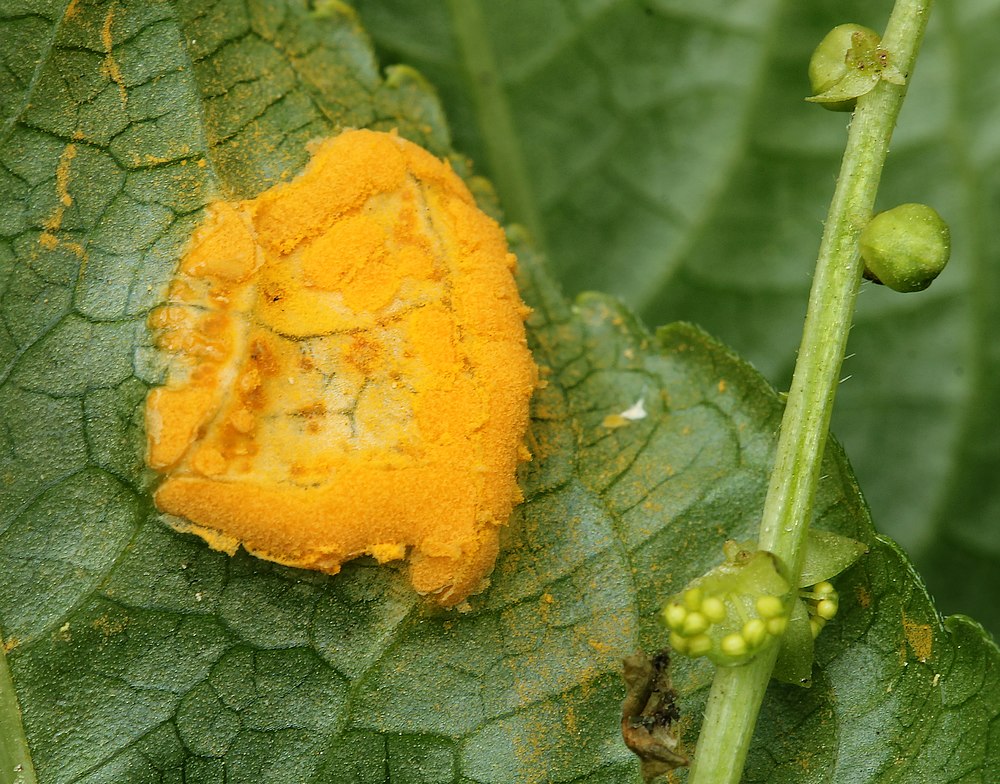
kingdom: Fungi
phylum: Basidiomycota
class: Pucciniomycetes
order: Pucciniales
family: Melampsoraceae
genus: Melampsora
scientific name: Melampsora populnea
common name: poppel-skorperust
